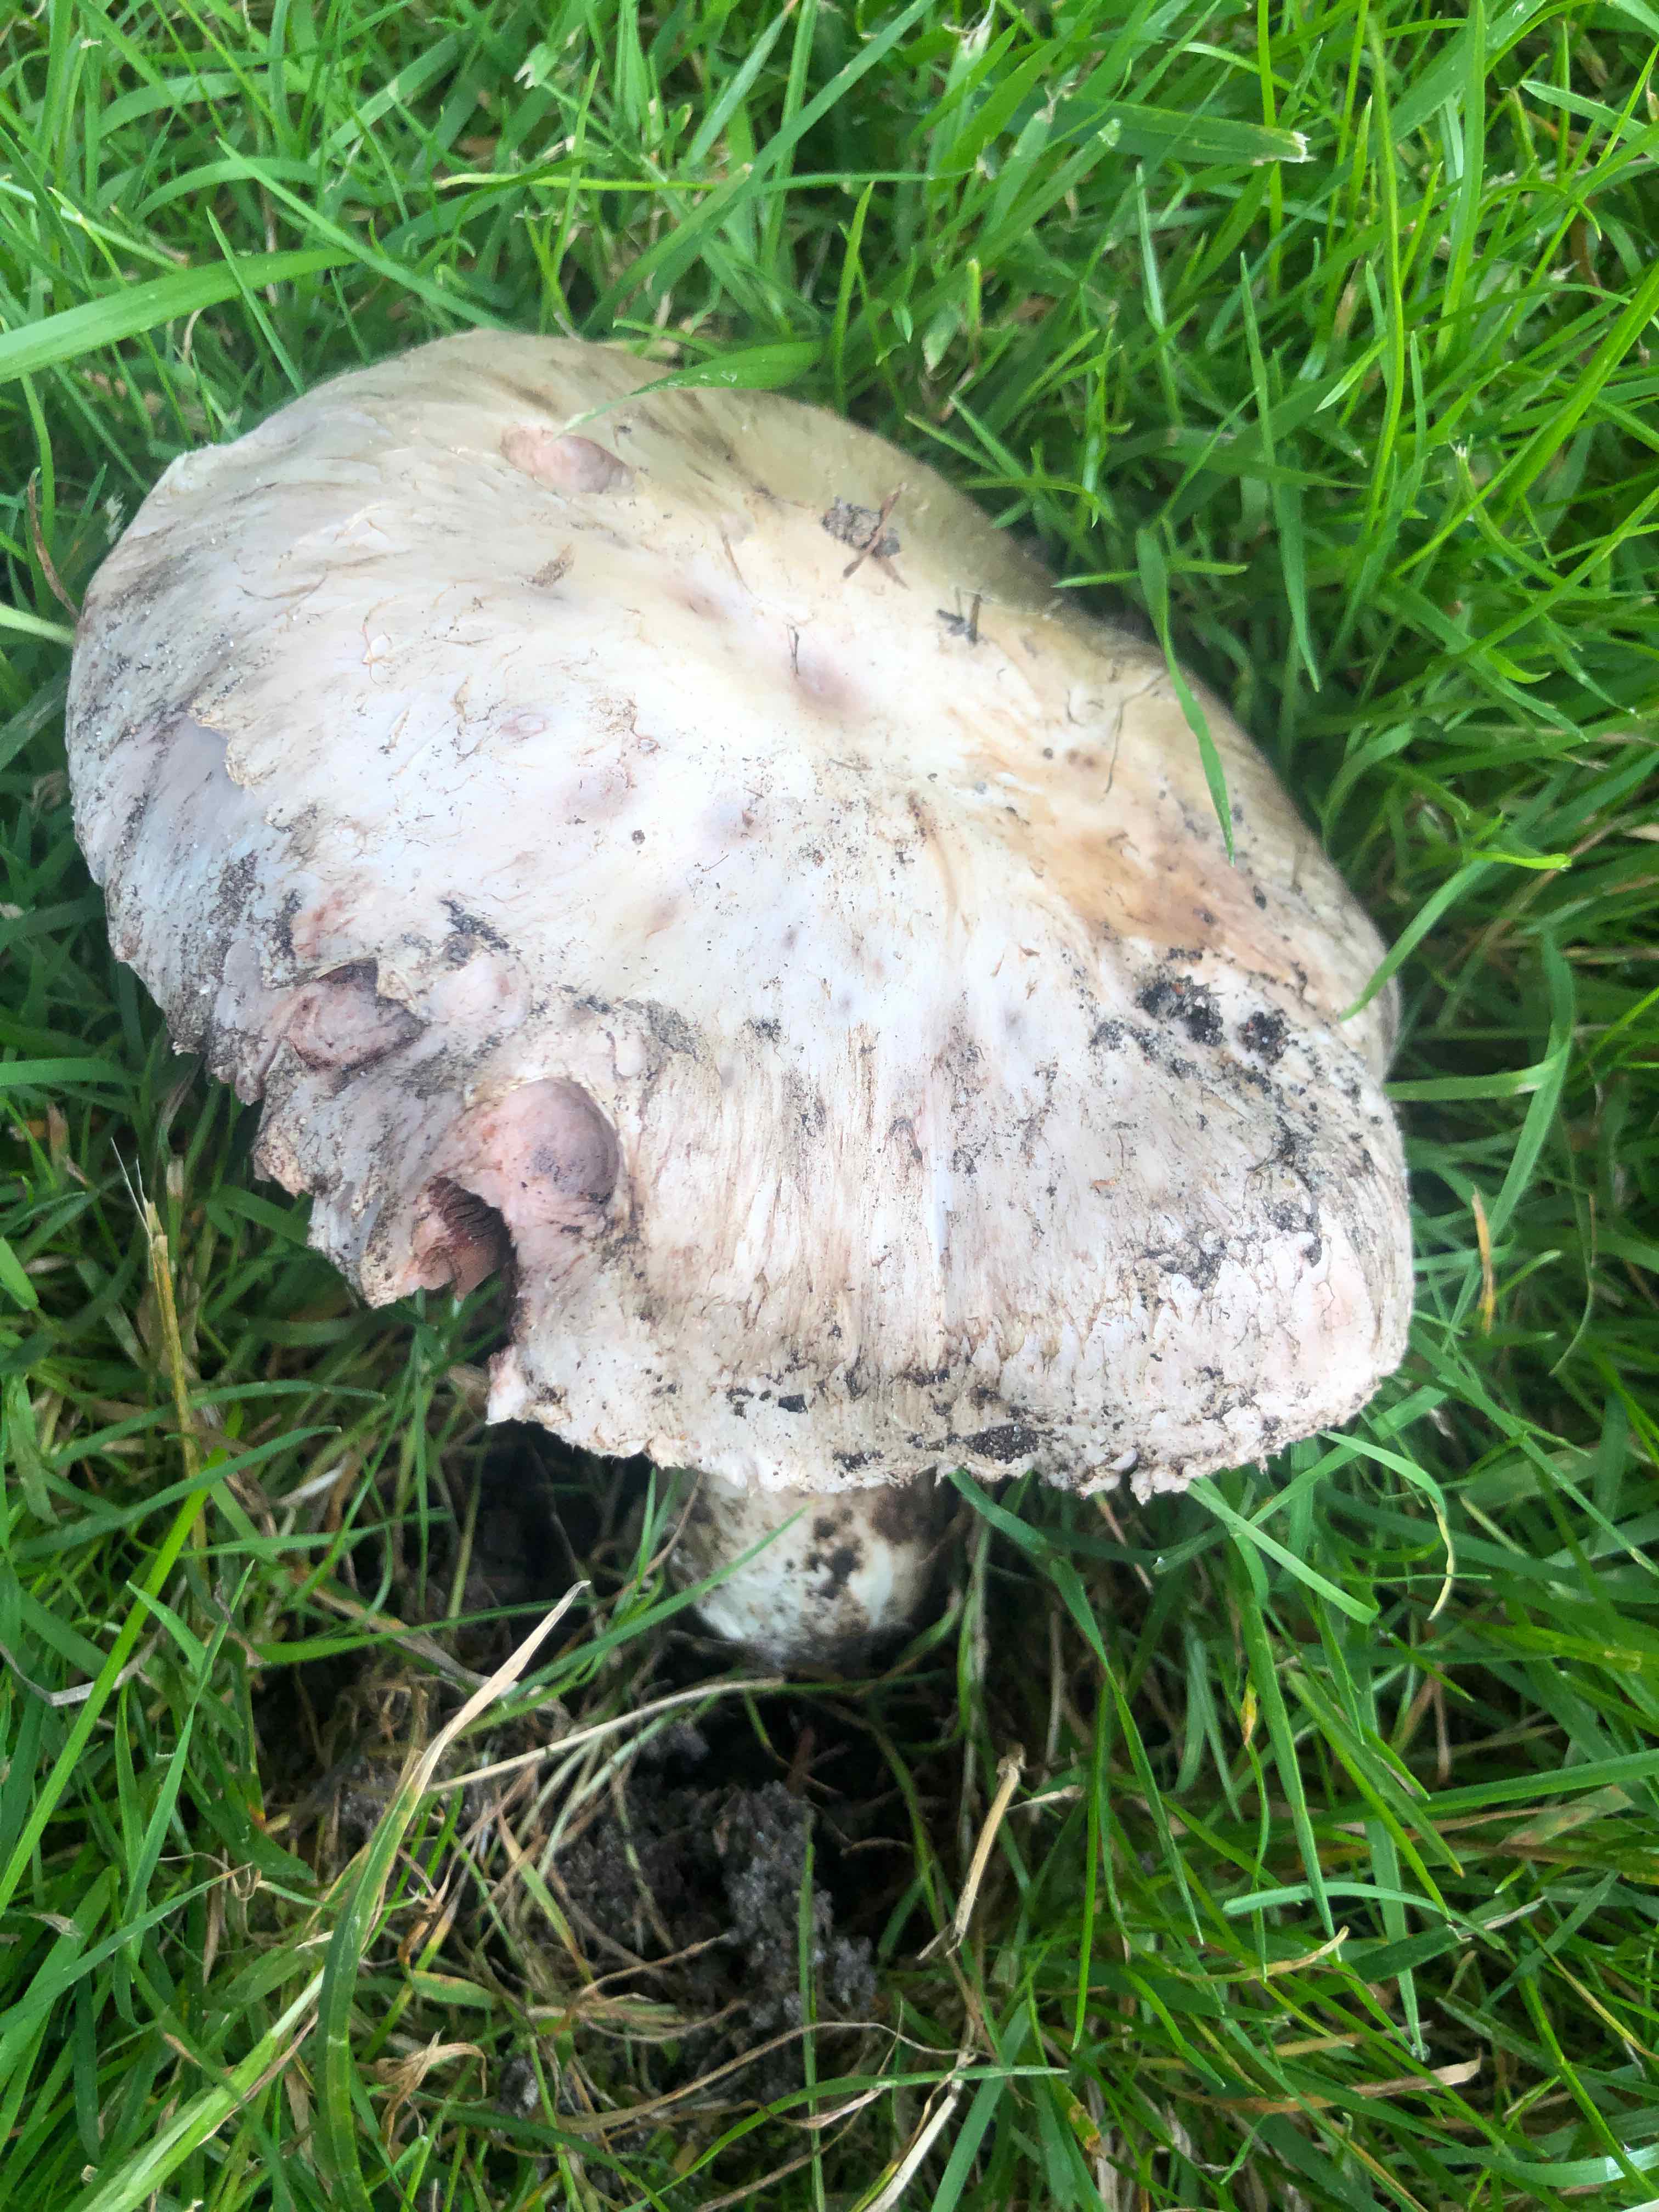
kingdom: Fungi
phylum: Basidiomycota
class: Agaricomycetes
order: Agaricales
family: Agaricaceae
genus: Agaricus
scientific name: Agaricus bitorquis
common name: vej-champignon
